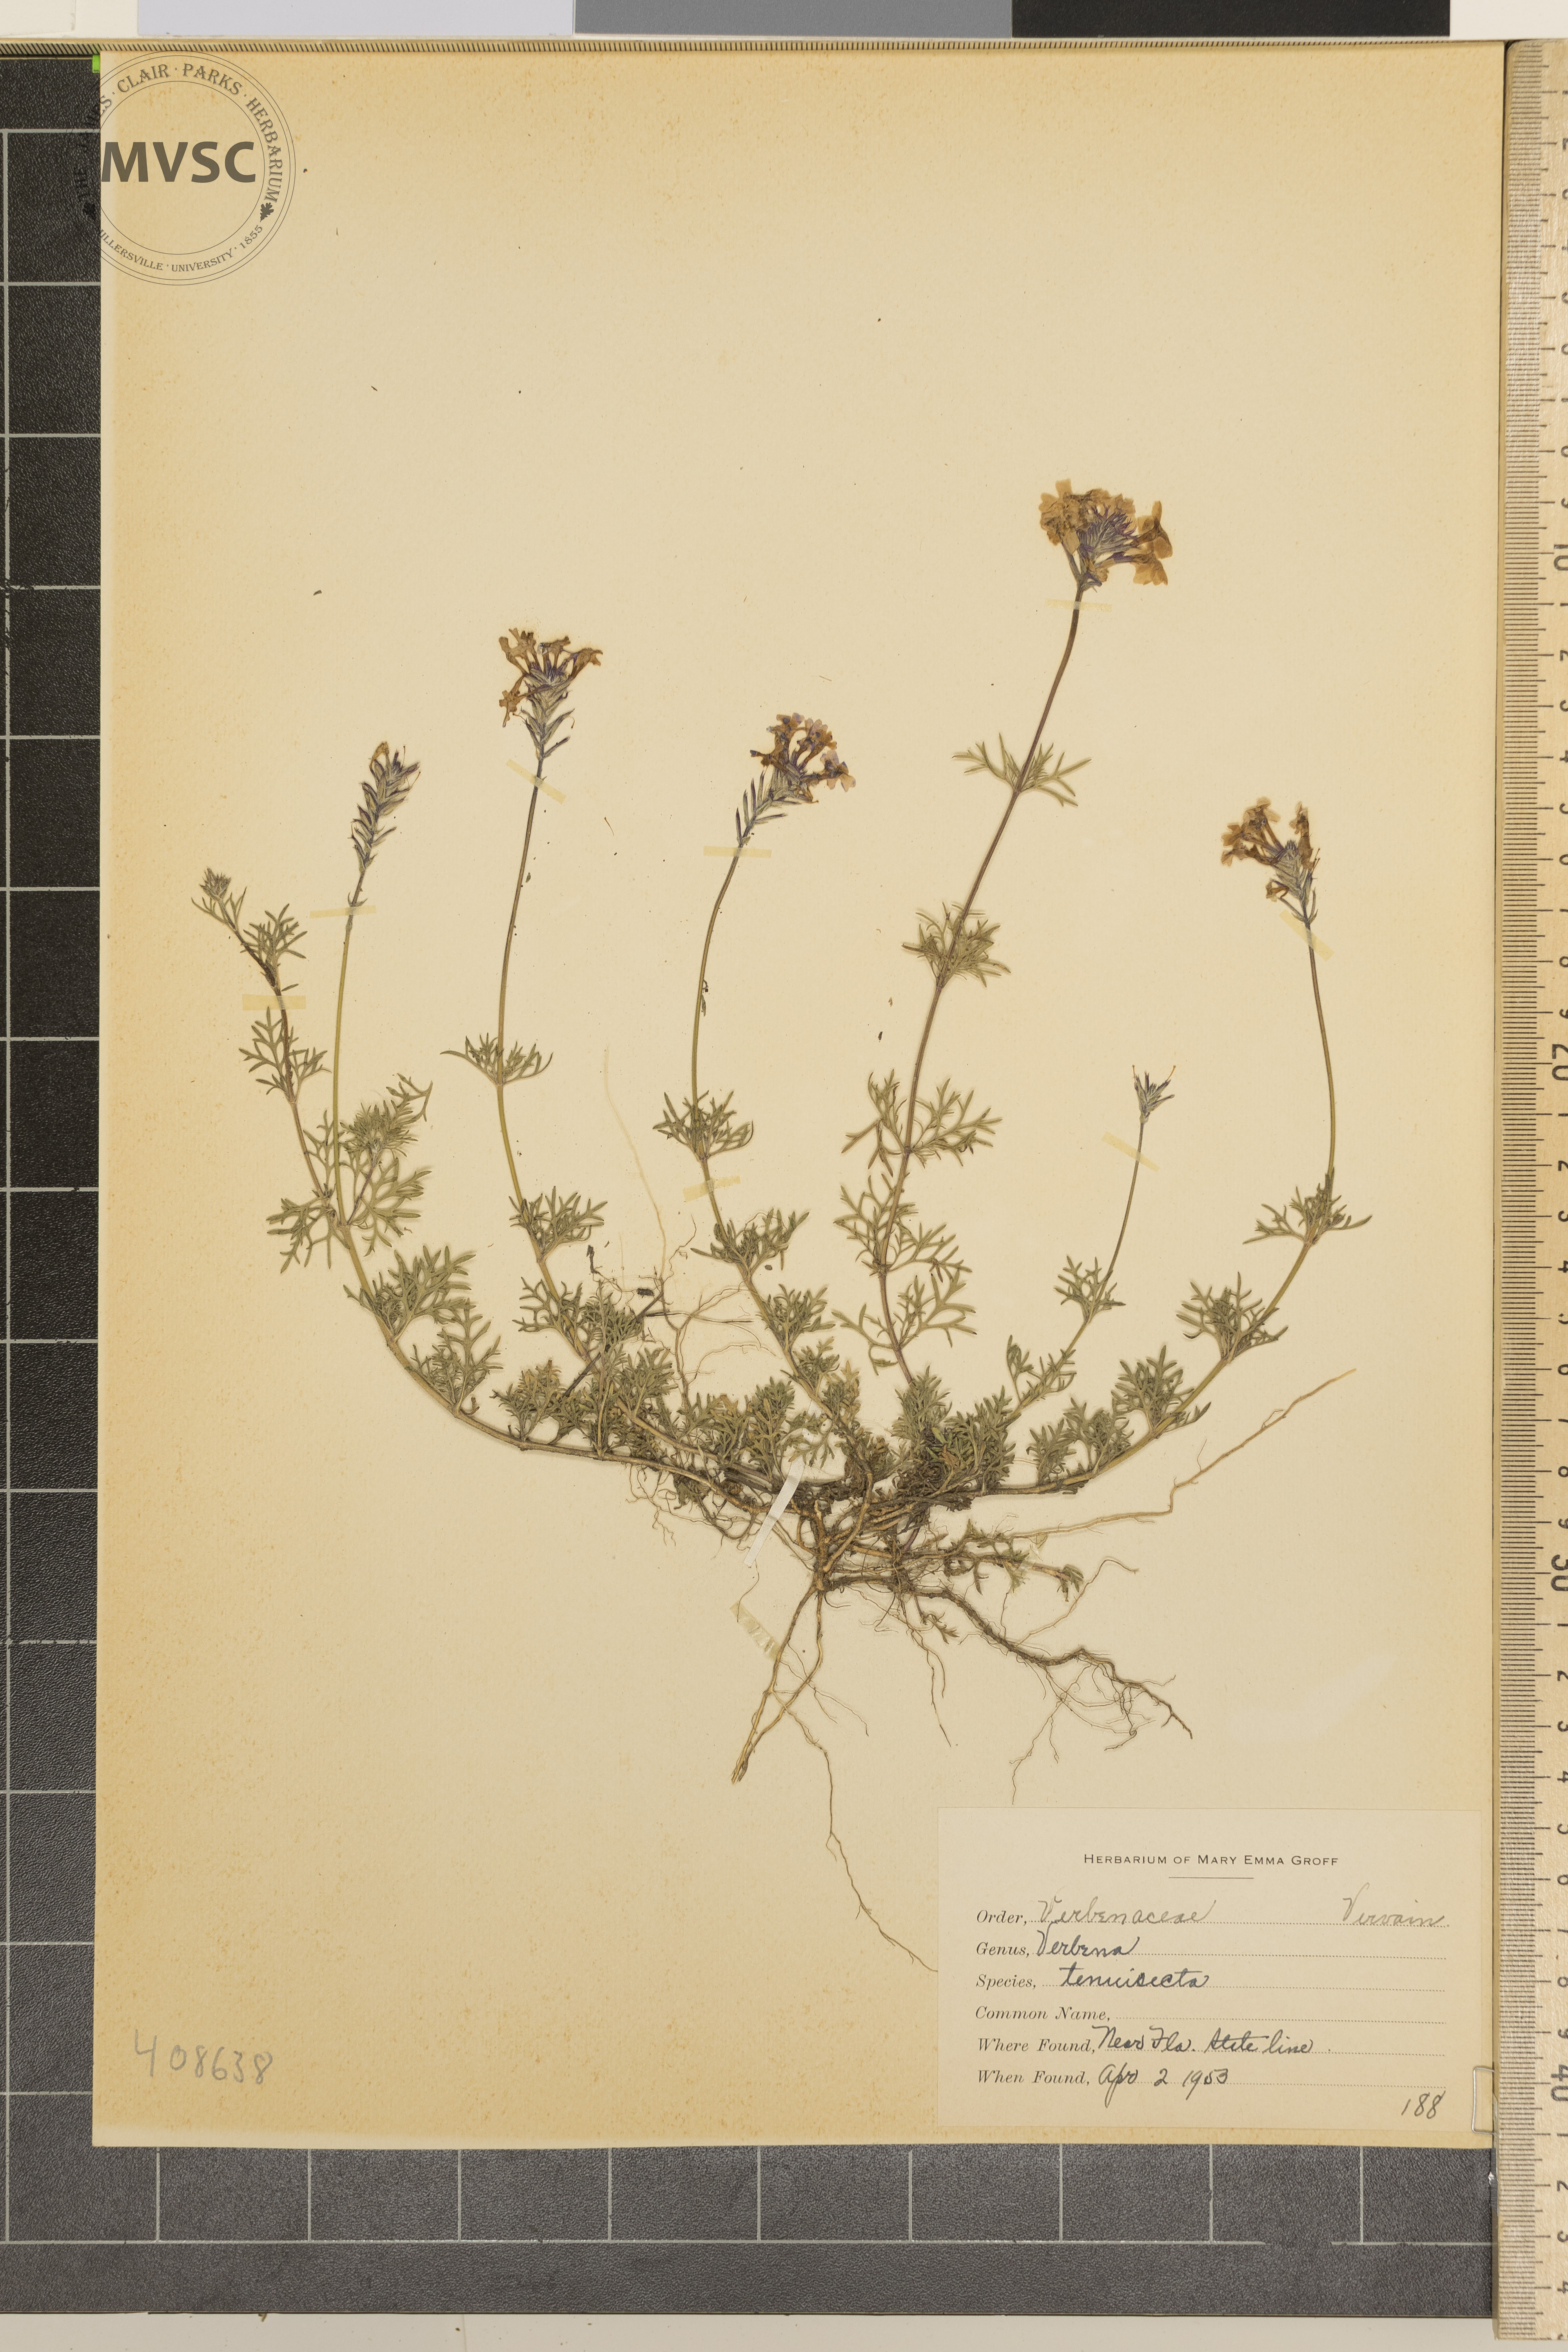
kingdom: Plantae
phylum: Tracheophyta
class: Magnoliopsida
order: Lamiales
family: Verbenaceae
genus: Verbena
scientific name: Verbena aristigera
